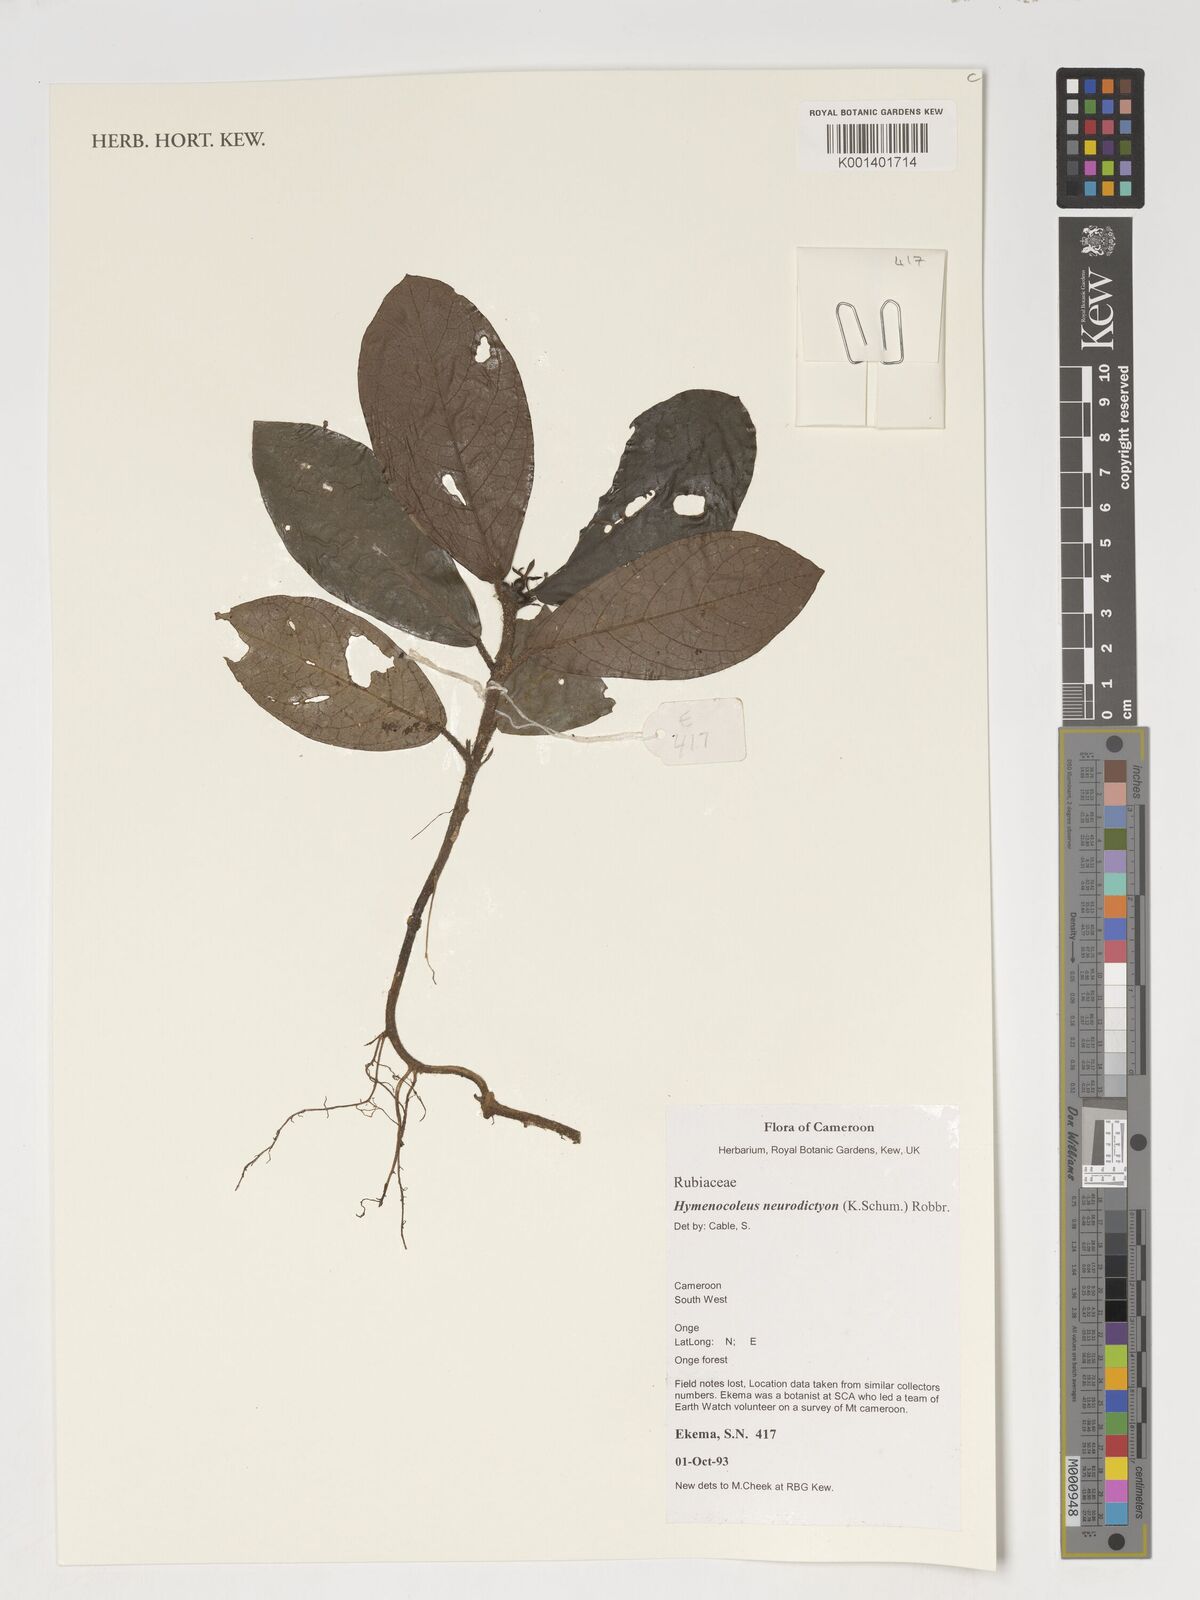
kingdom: Plantae
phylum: Tracheophyta
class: Magnoliopsida
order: Gentianales
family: Rubiaceae
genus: Hymenocoleus
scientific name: Hymenocoleus neurodictyon
